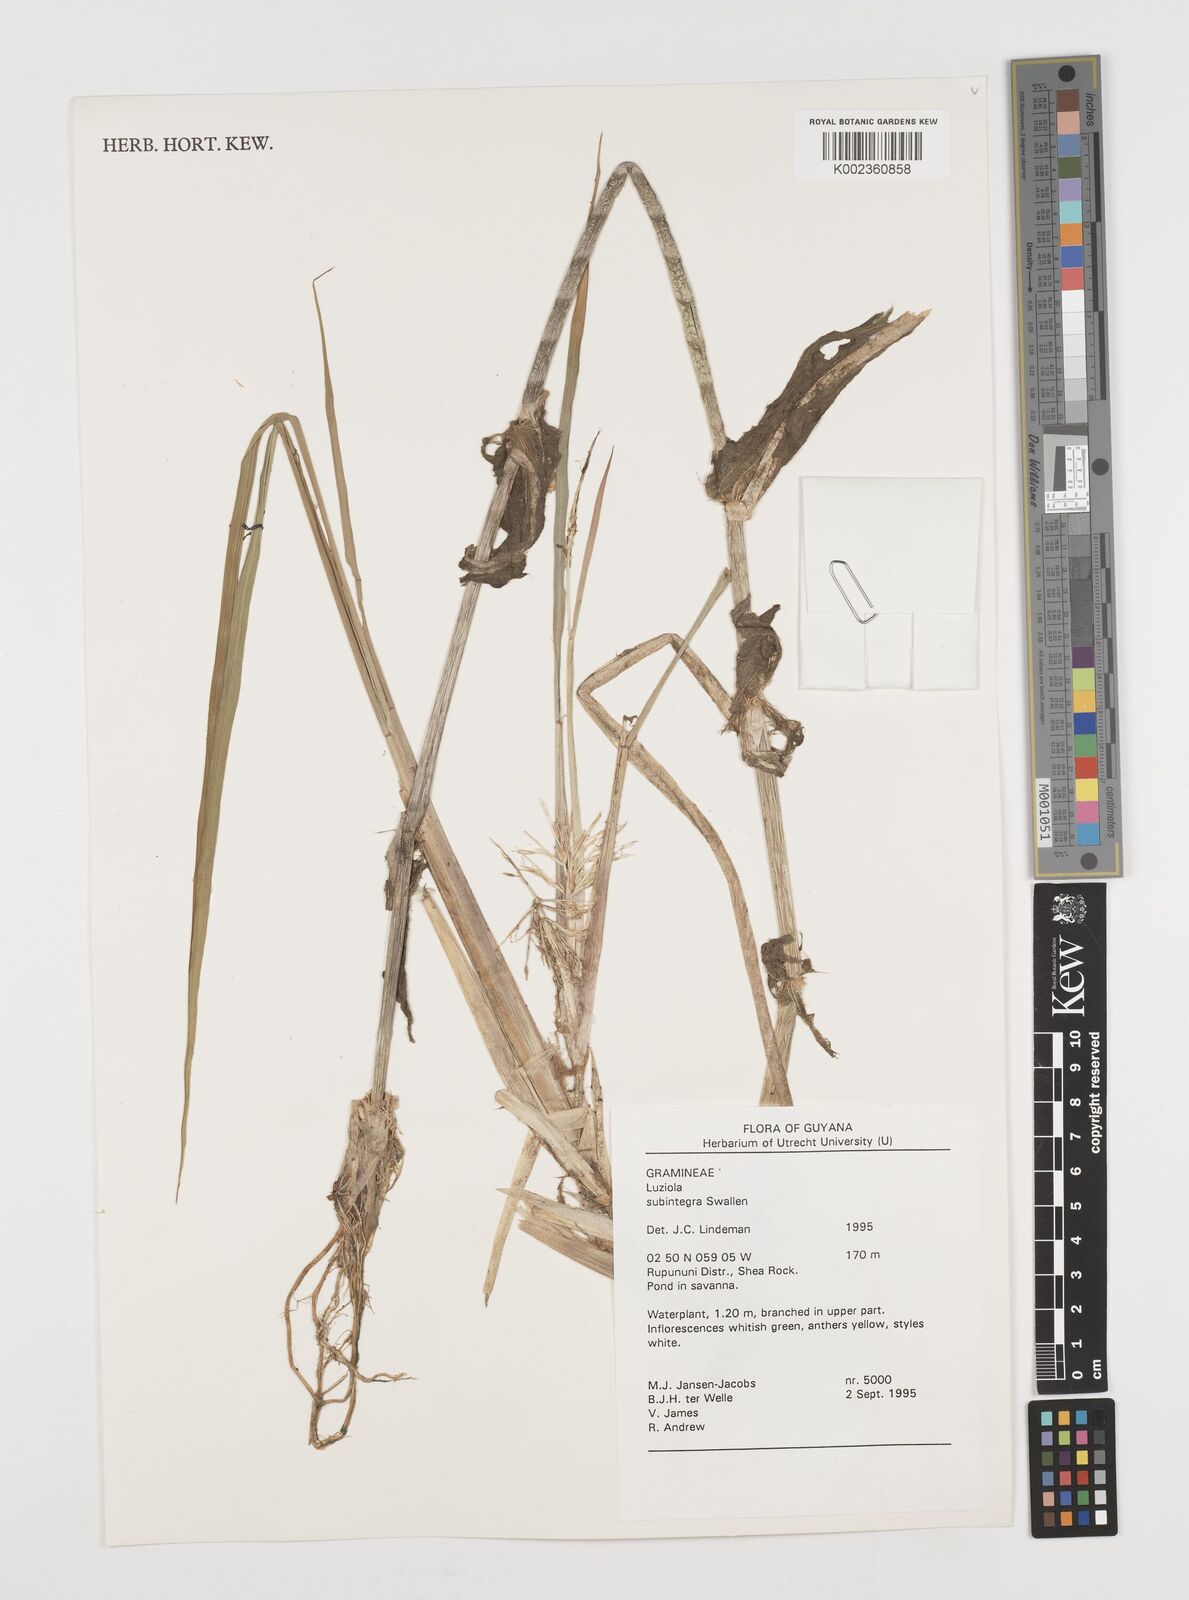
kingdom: Plantae
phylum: Tracheophyta
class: Liliopsida
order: Poales
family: Poaceae
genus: Luziola
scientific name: Luziola subintegra
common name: Large watergrass
